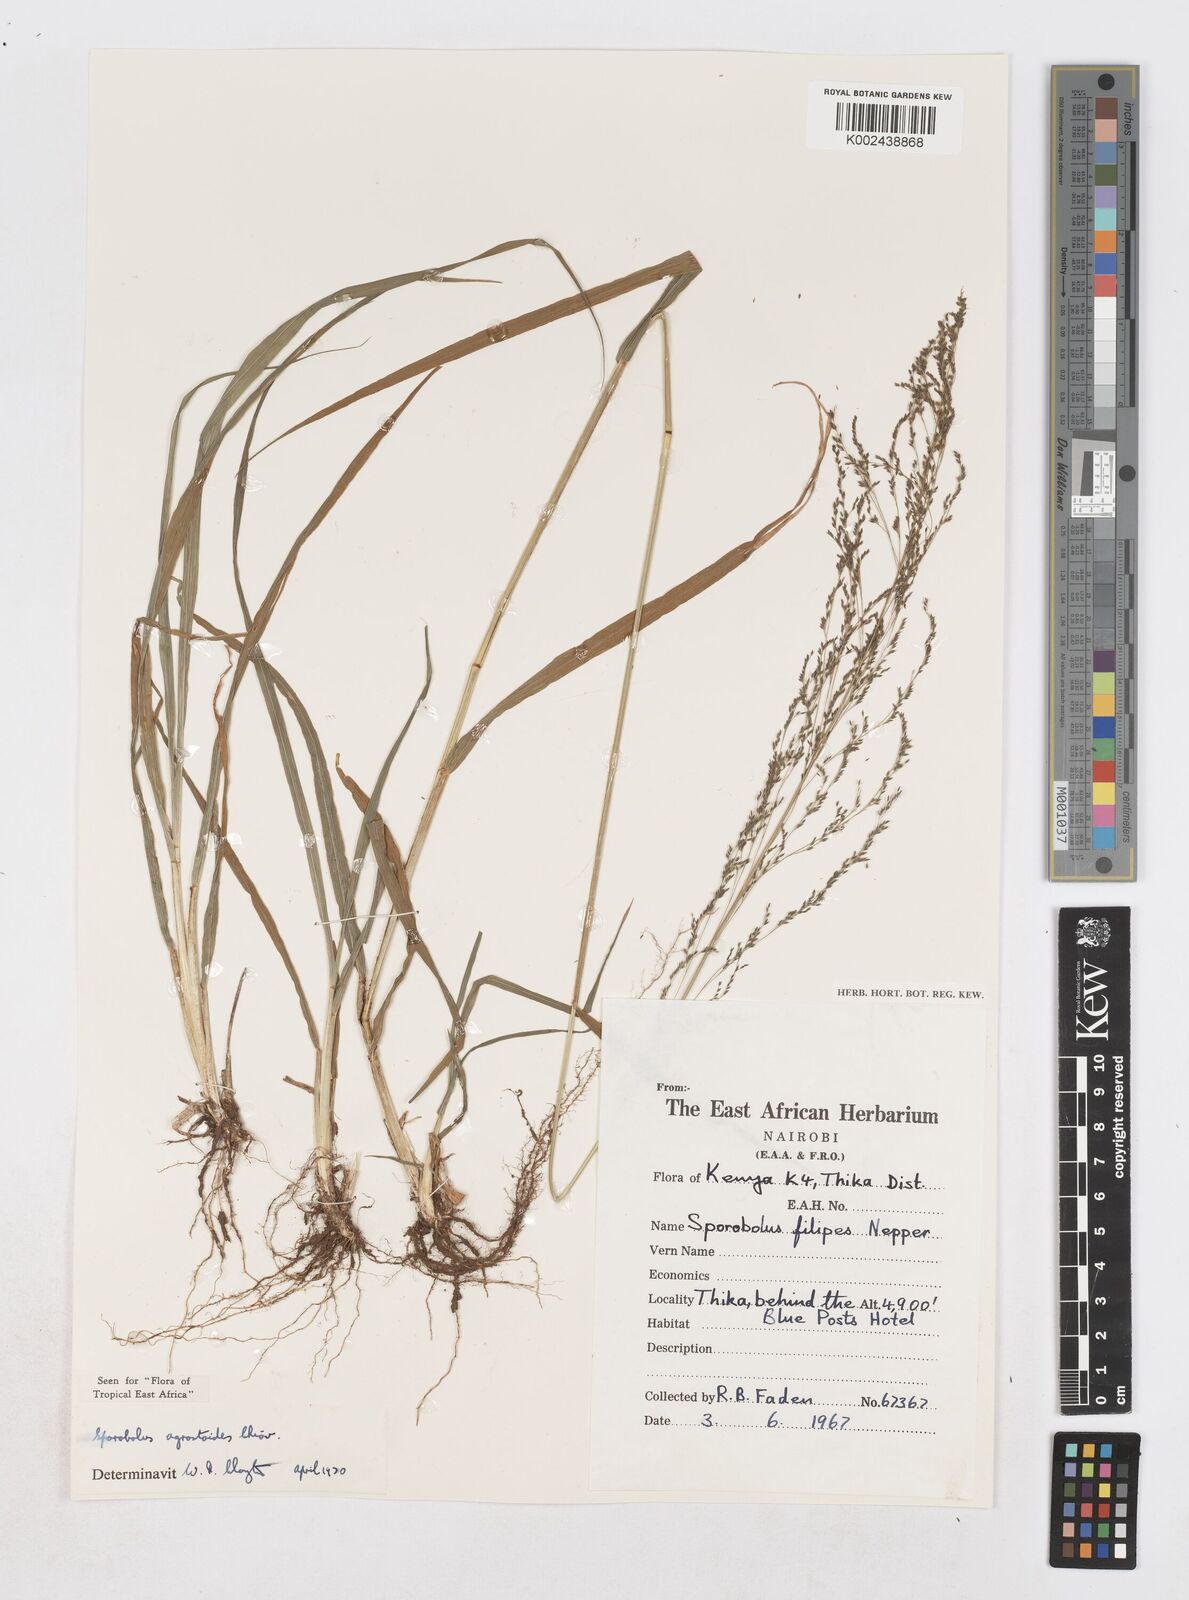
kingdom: Plantae
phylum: Tracheophyta
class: Liliopsida
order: Poales
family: Poaceae
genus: Sporobolus
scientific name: Sporobolus agrostoides
